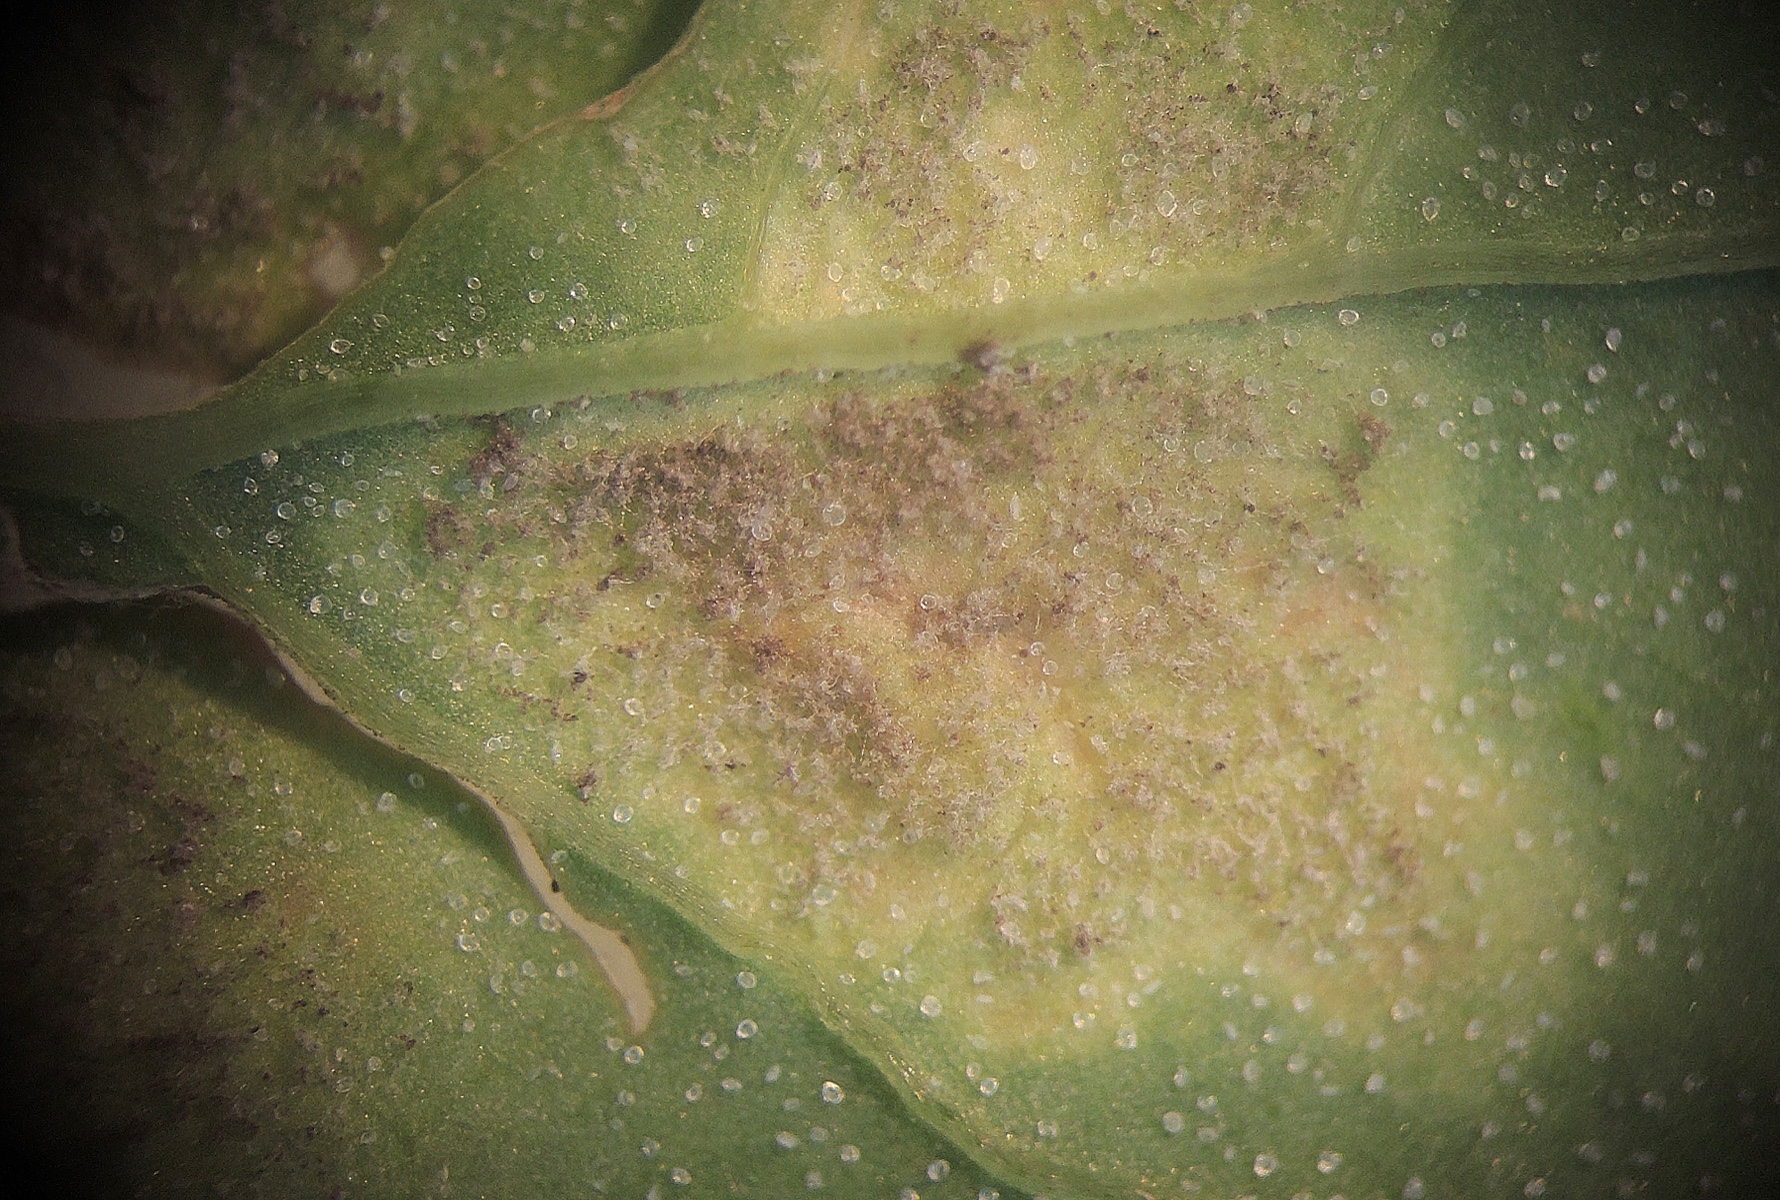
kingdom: Chromista
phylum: Oomycota
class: Peronosporea
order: Peronosporales
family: Peronosporaceae
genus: Peronospora
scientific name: Peronospora farinosa
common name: Beet downy mildew
